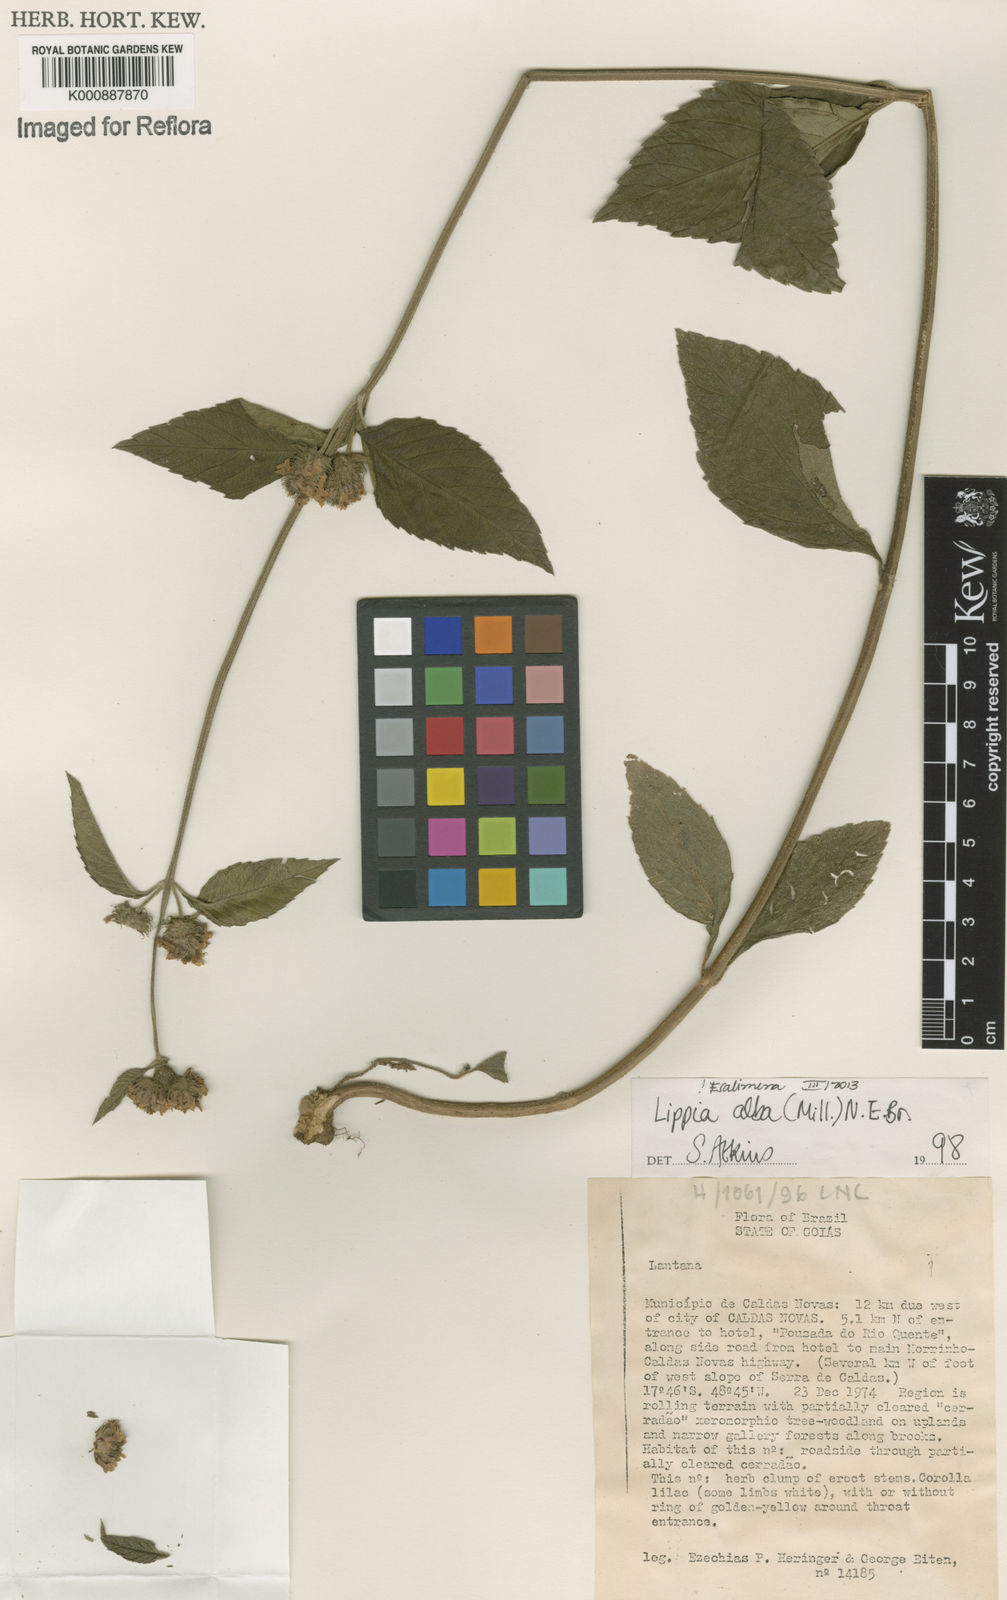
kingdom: Plantae
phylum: Tracheophyta
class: Magnoliopsida
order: Lamiales
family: Verbenaceae
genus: Lippia
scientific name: Lippia
